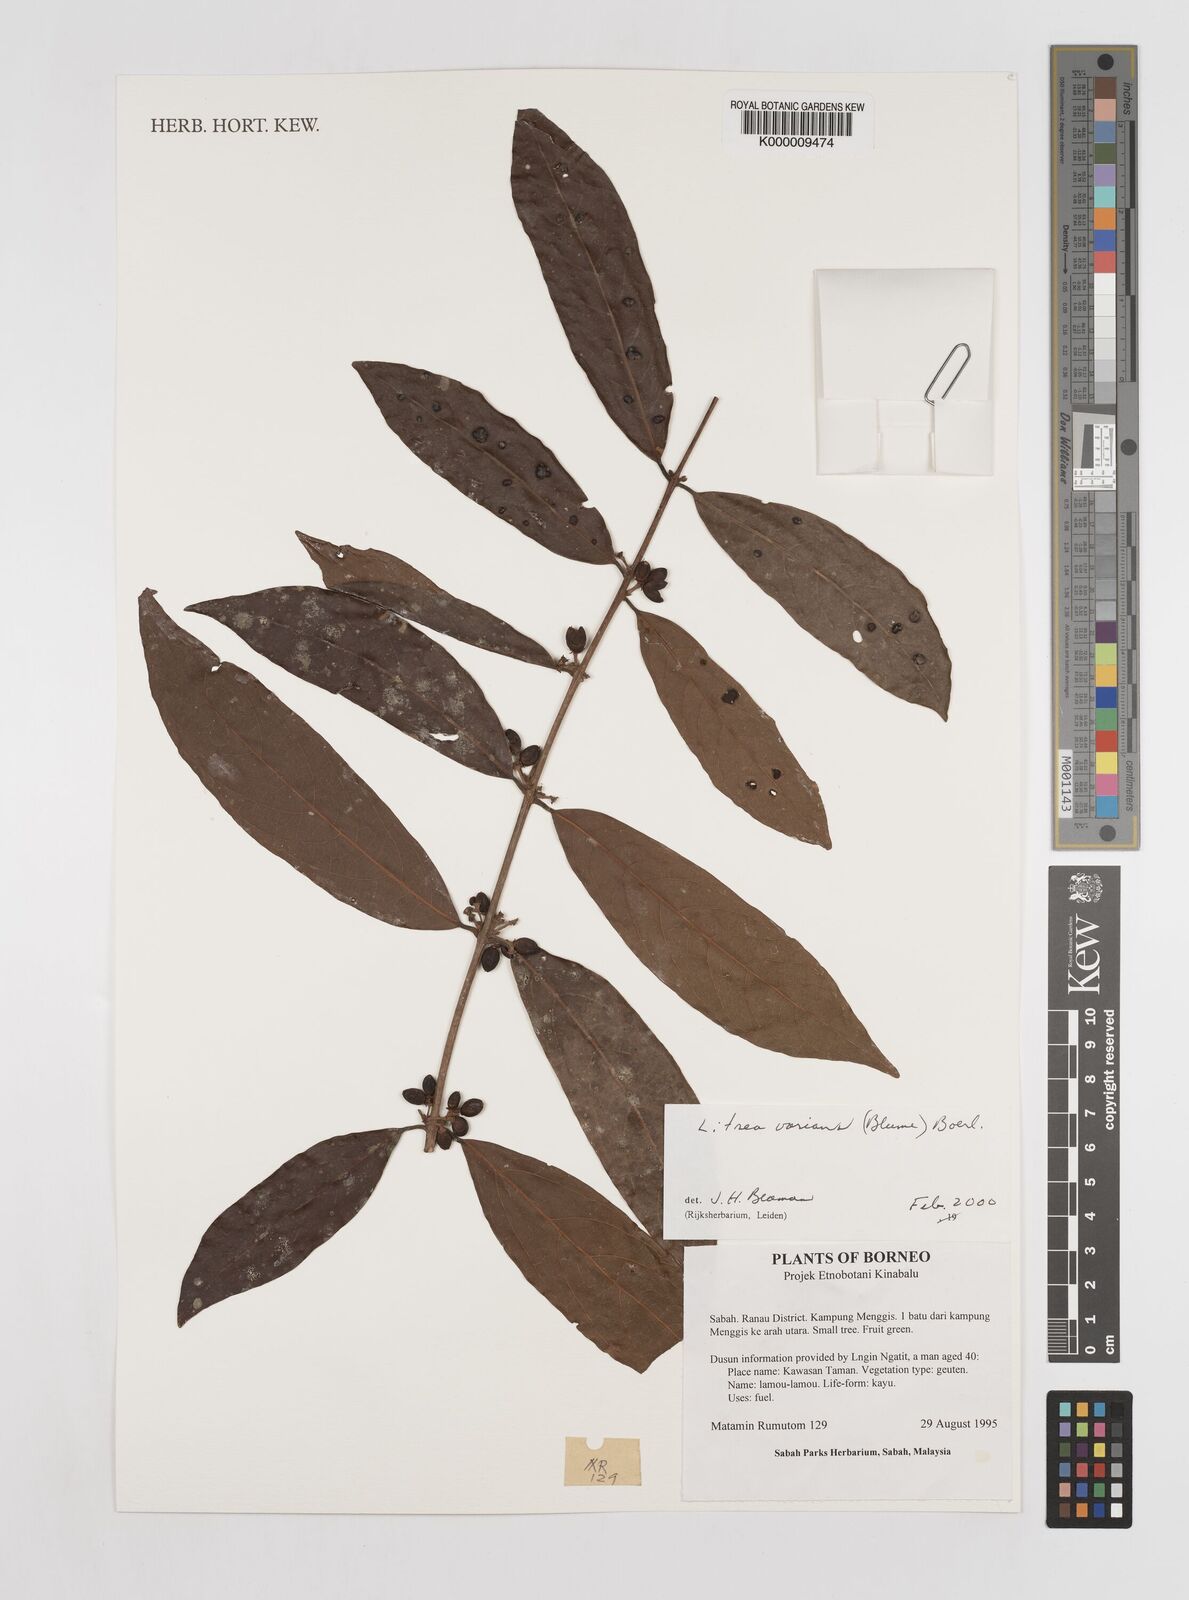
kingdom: Plantae
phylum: Tracheophyta
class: Magnoliopsida
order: Laurales
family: Lauraceae
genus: Litsea
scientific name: Litsea varians
